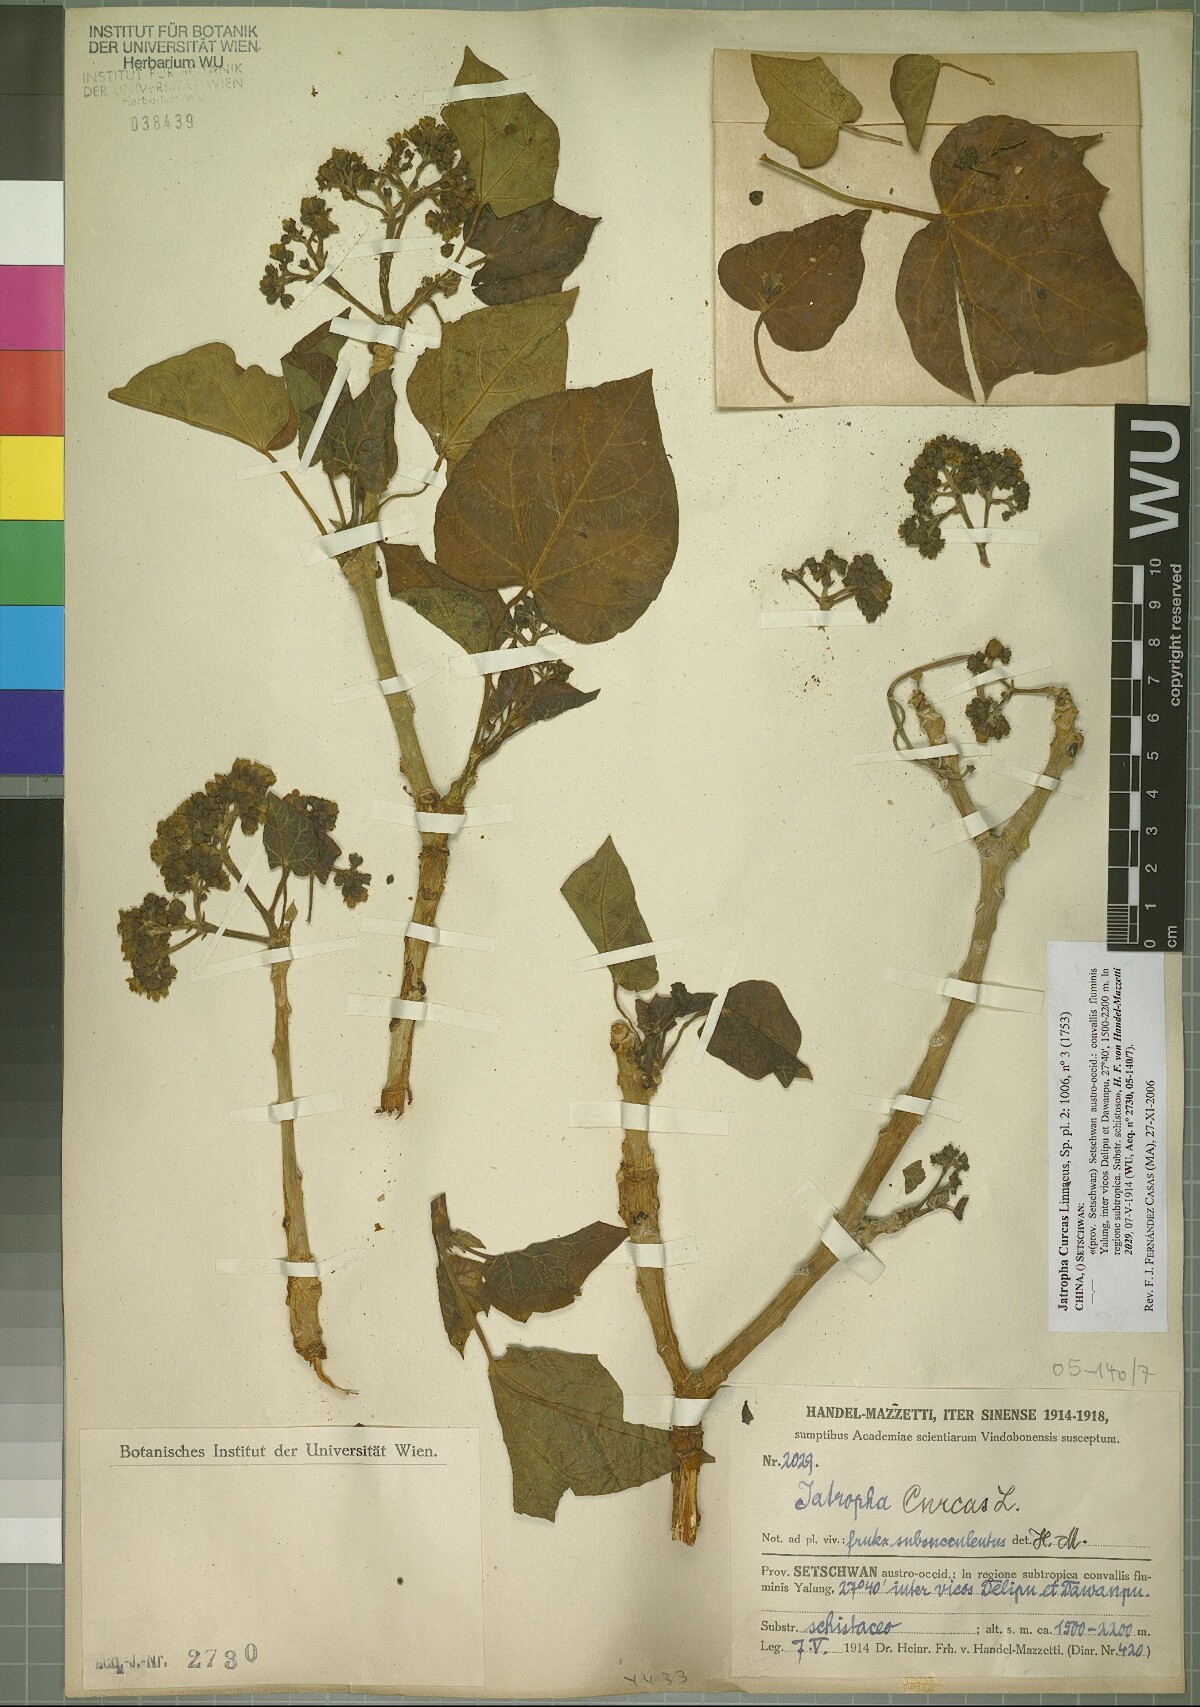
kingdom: Plantae
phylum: Tracheophyta
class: Magnoliopsida
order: Malpighiales
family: Euphorbiaceae
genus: Jatropha
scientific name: Jatropha curcas
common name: Barbados nut
